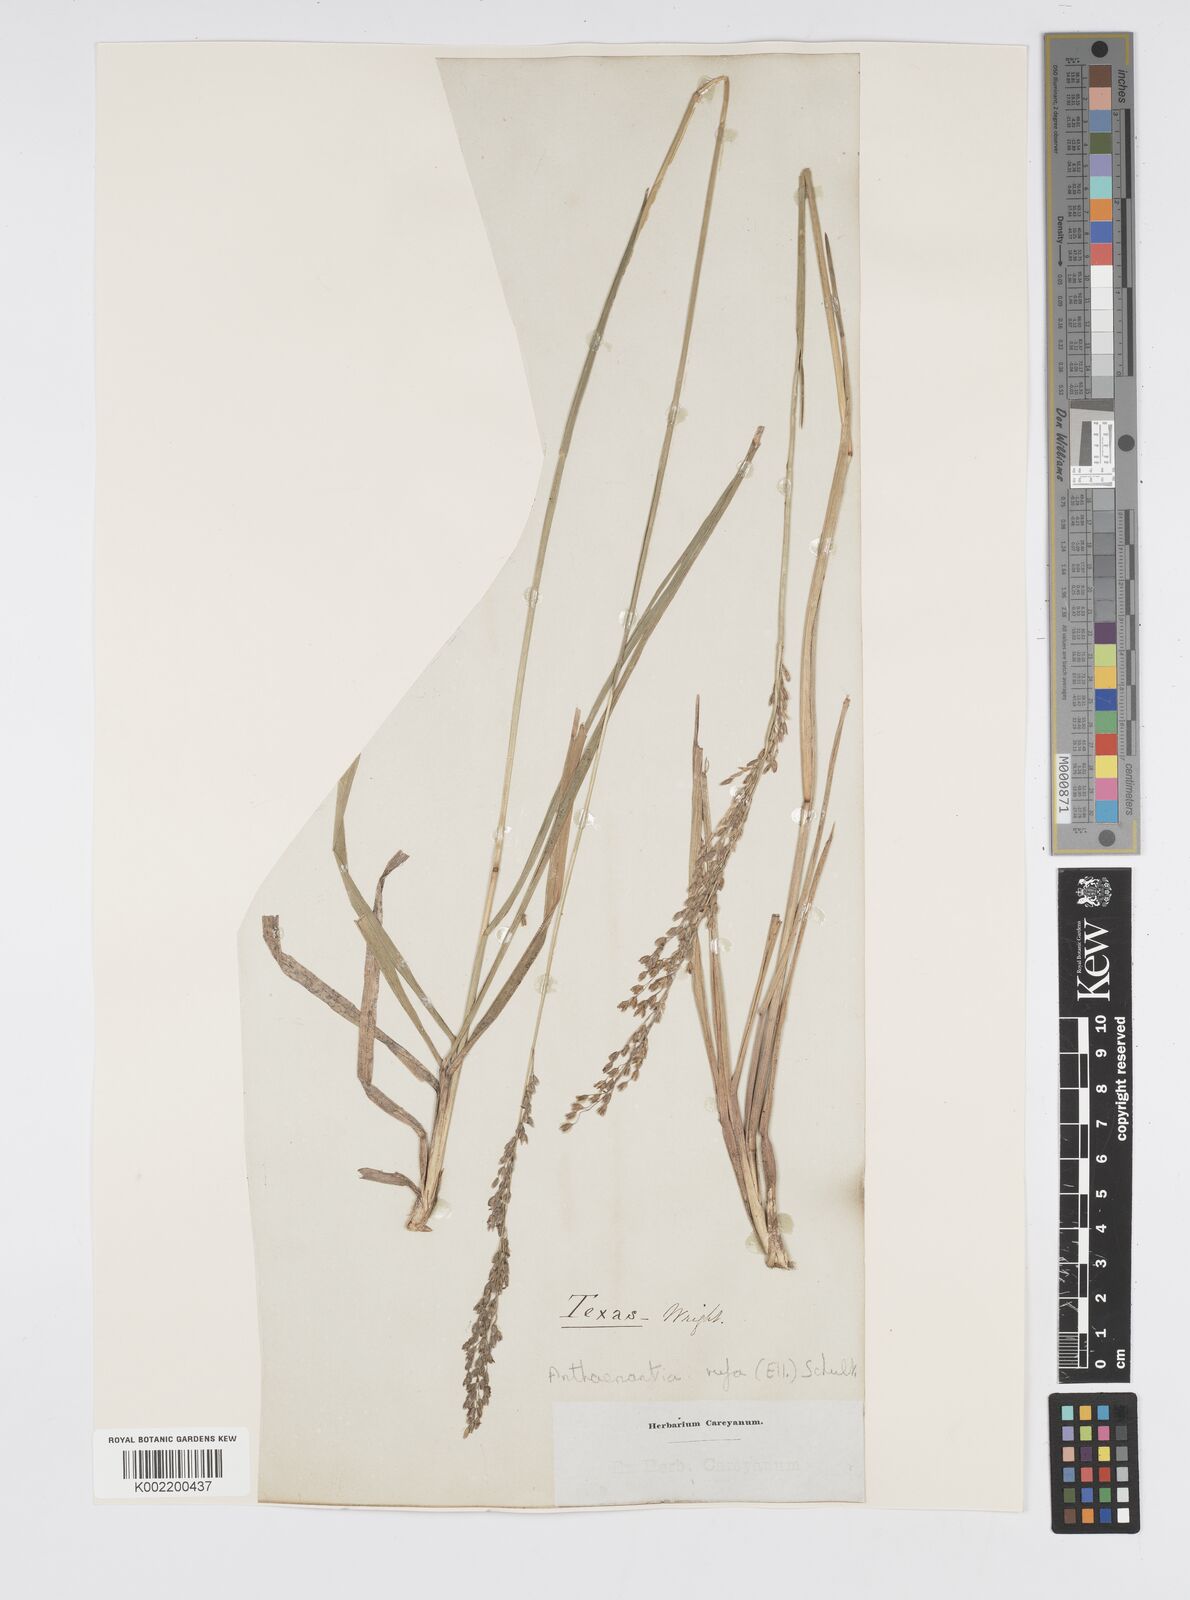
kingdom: Plantae
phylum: Tracheophyta
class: Liliopsida
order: Poales
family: Poaceae
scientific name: Poaceae
